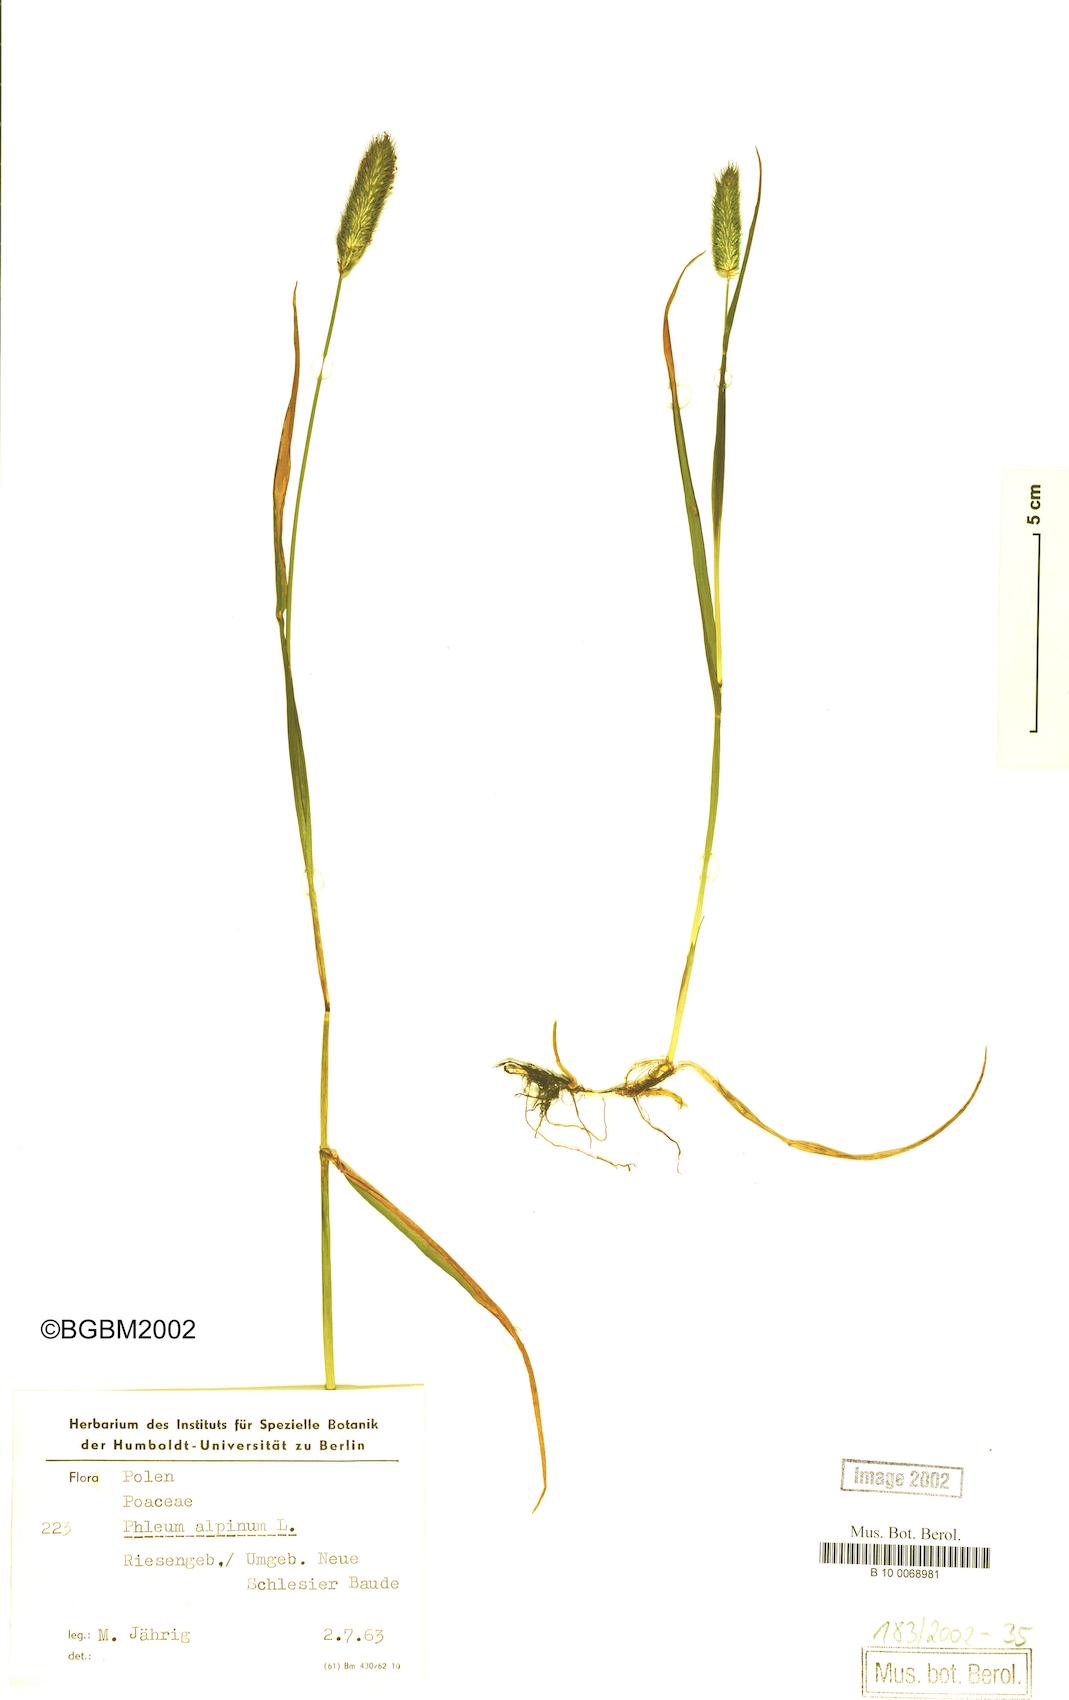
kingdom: Plantae
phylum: Tracheophyta
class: Liliopsida
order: Poales
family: Poaceae
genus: Phleum
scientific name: Phleum alpinum
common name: Alpine cat's-tail
